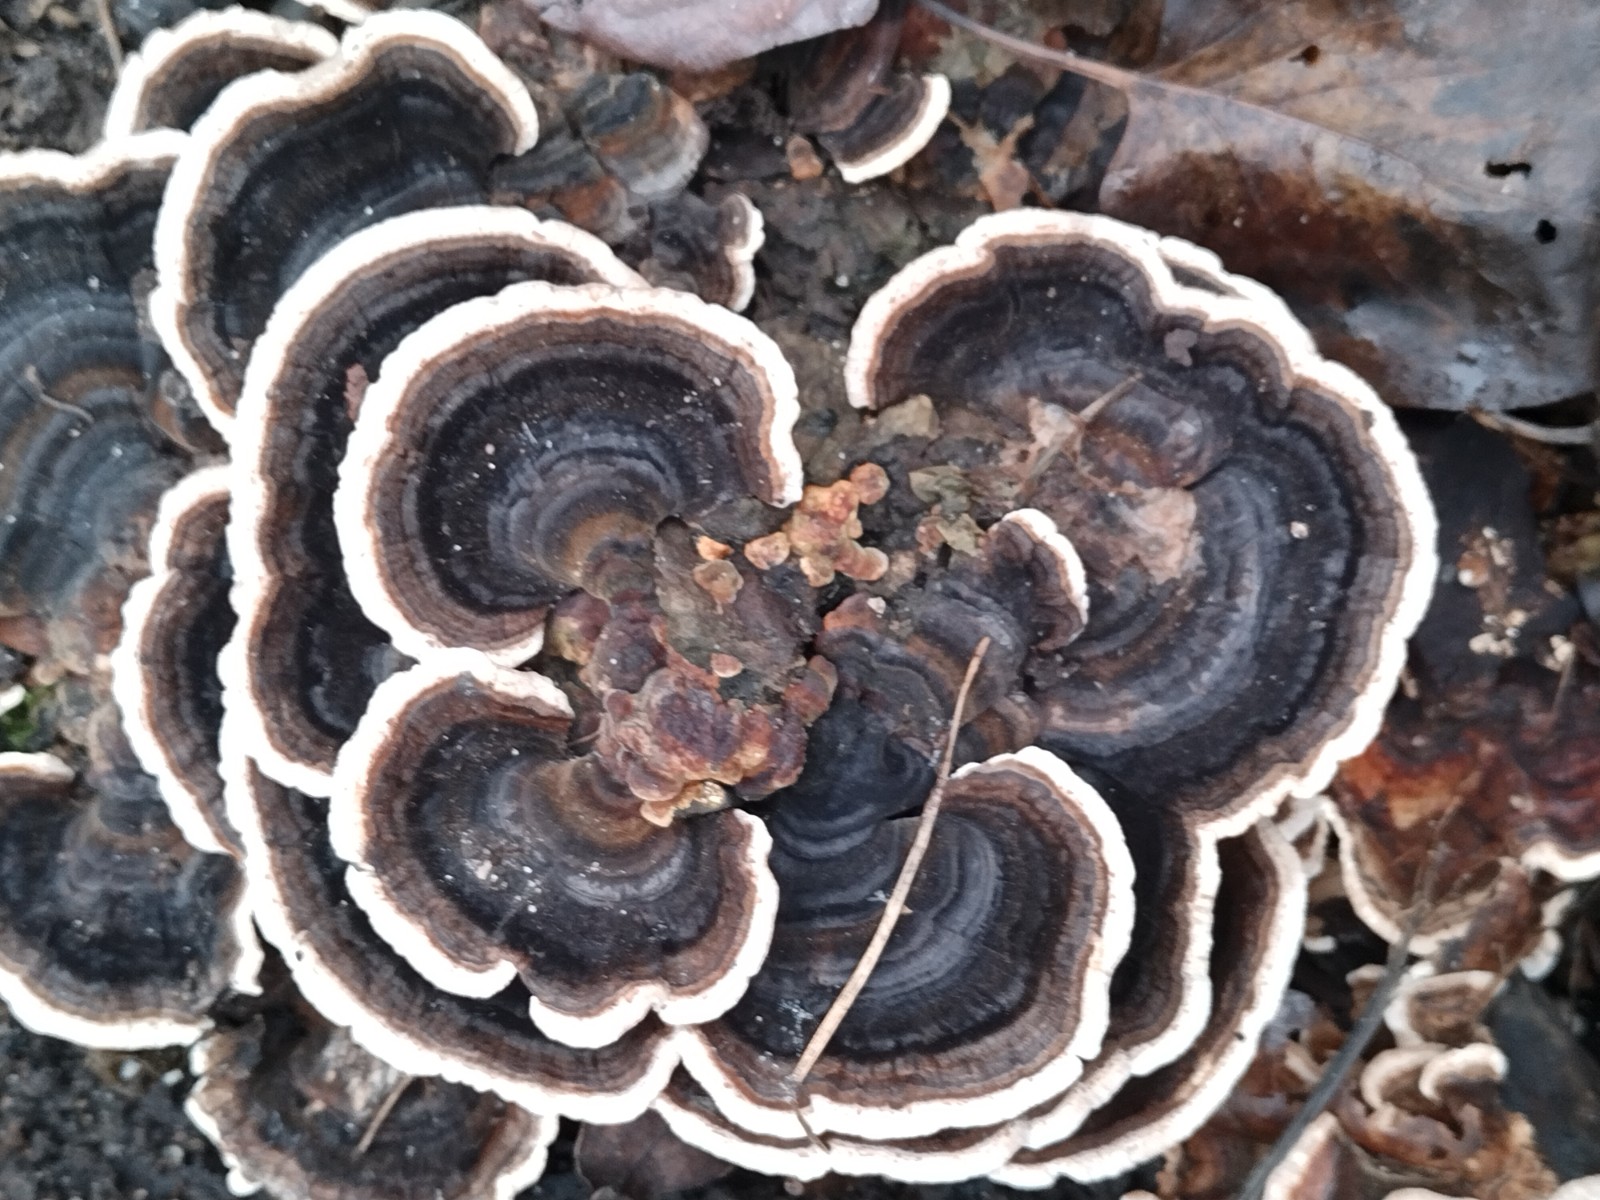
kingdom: Fungi
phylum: Basidiomycota
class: Agaricomycetes
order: Polyporales
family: Polyporaceae
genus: Trametes
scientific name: Trametes versicolor
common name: broget læderporesvamp
